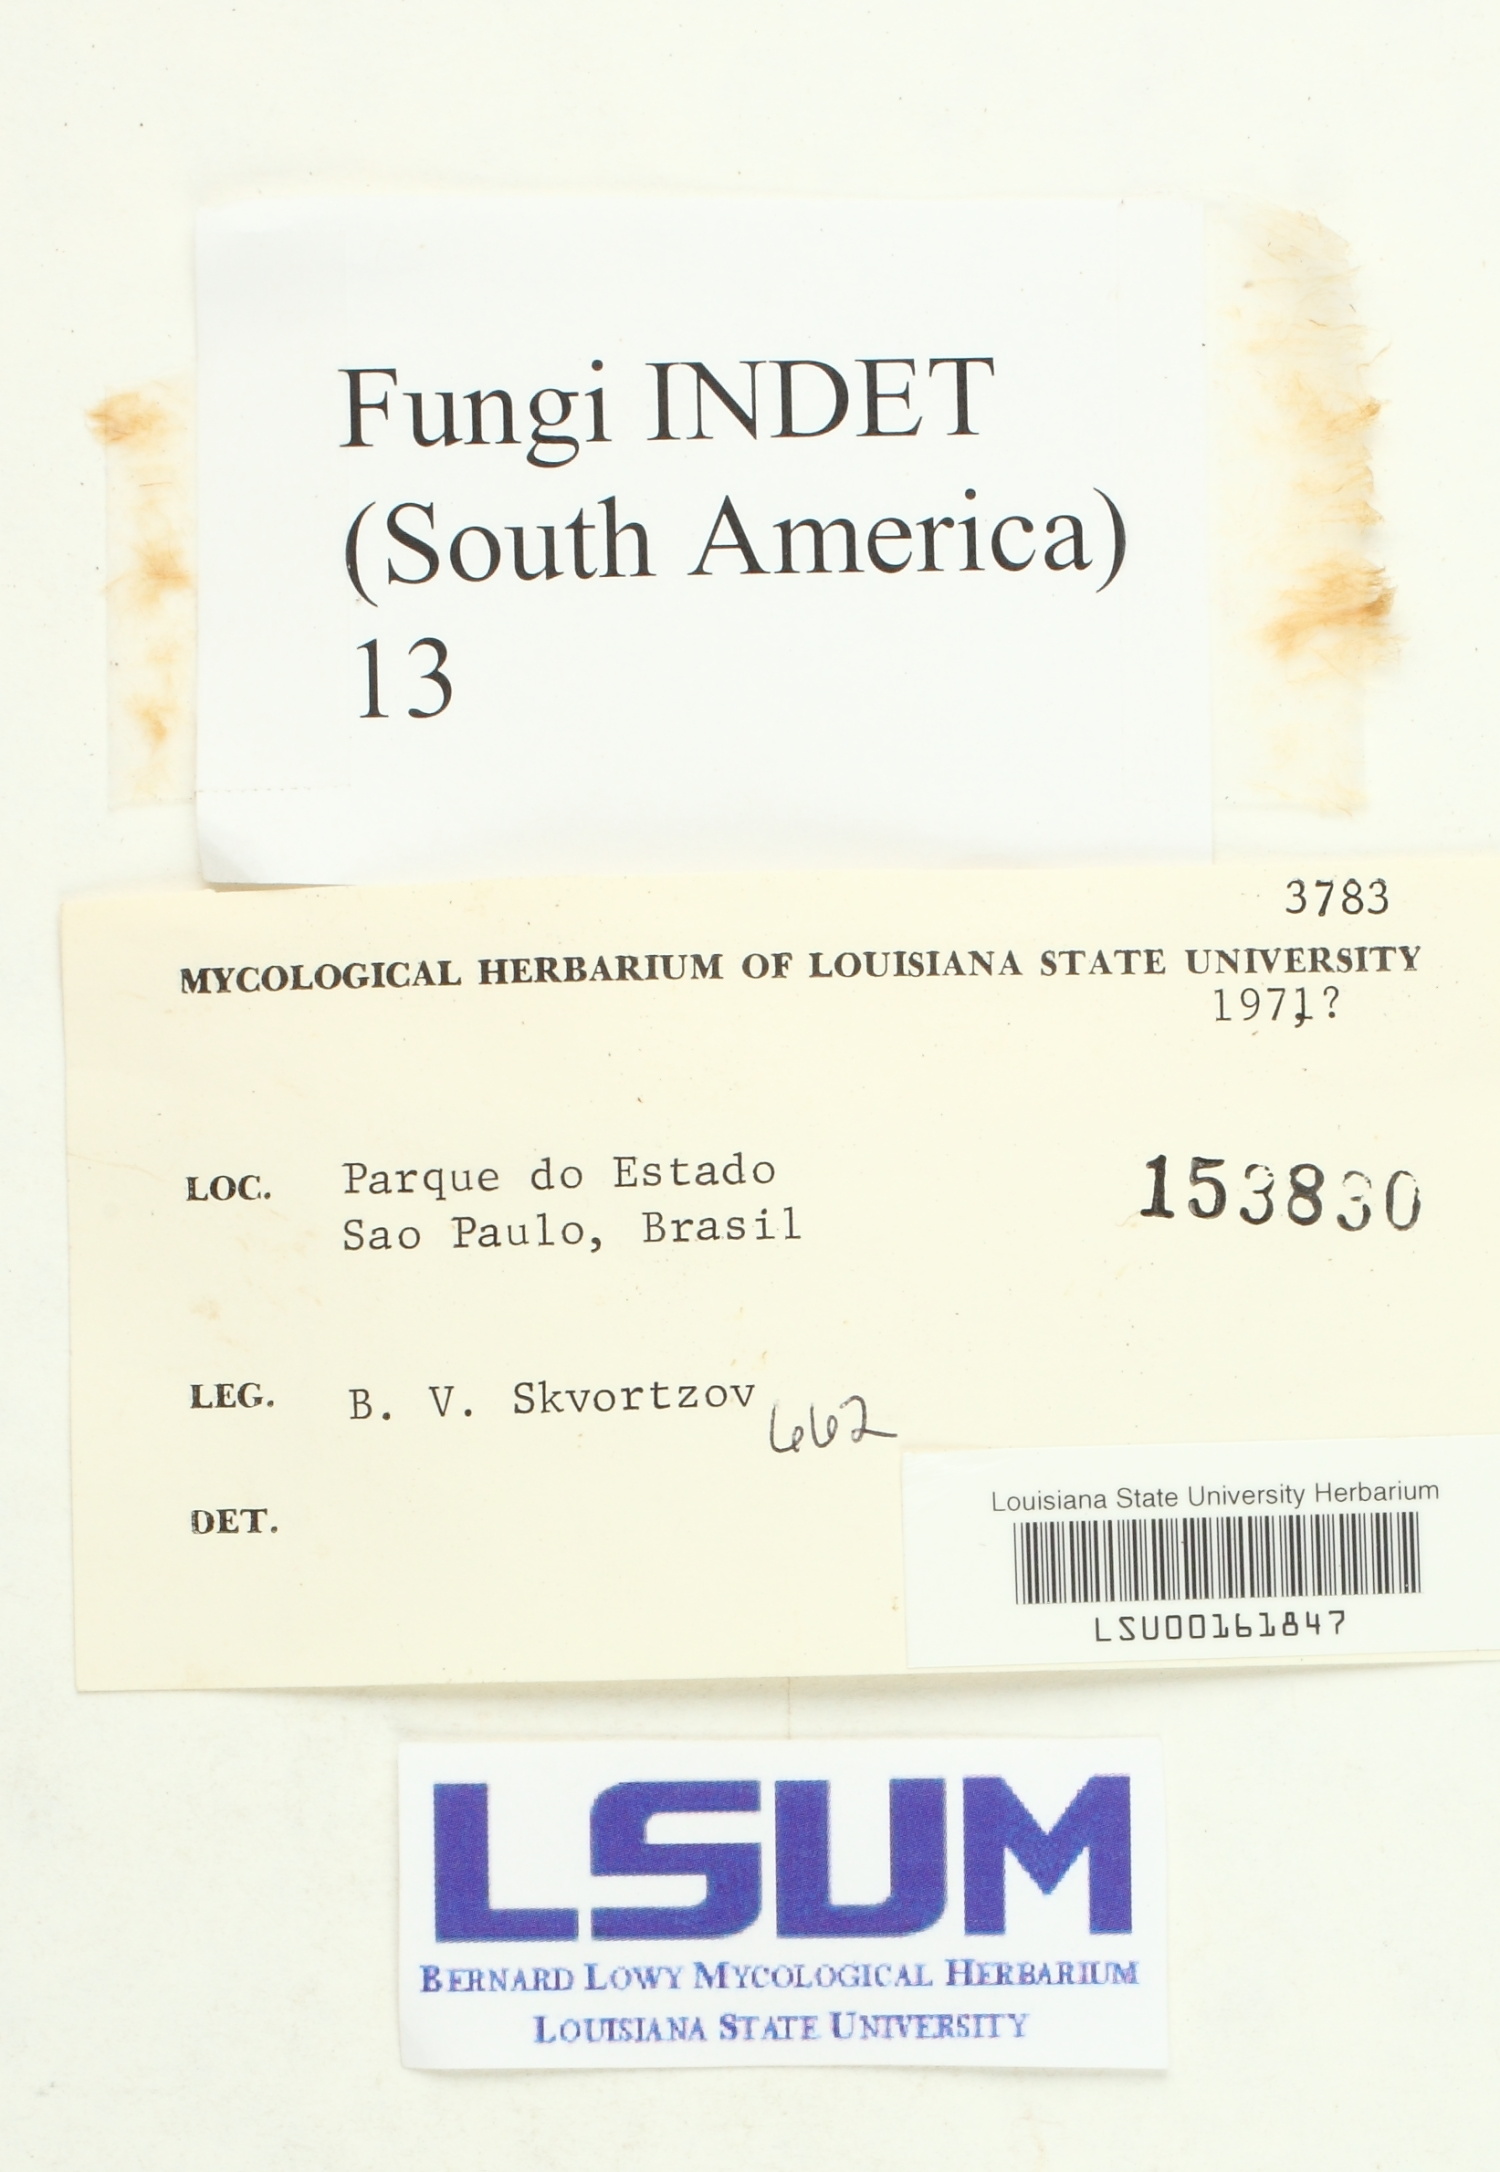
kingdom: Fungi
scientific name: Fungi
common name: Fungi
